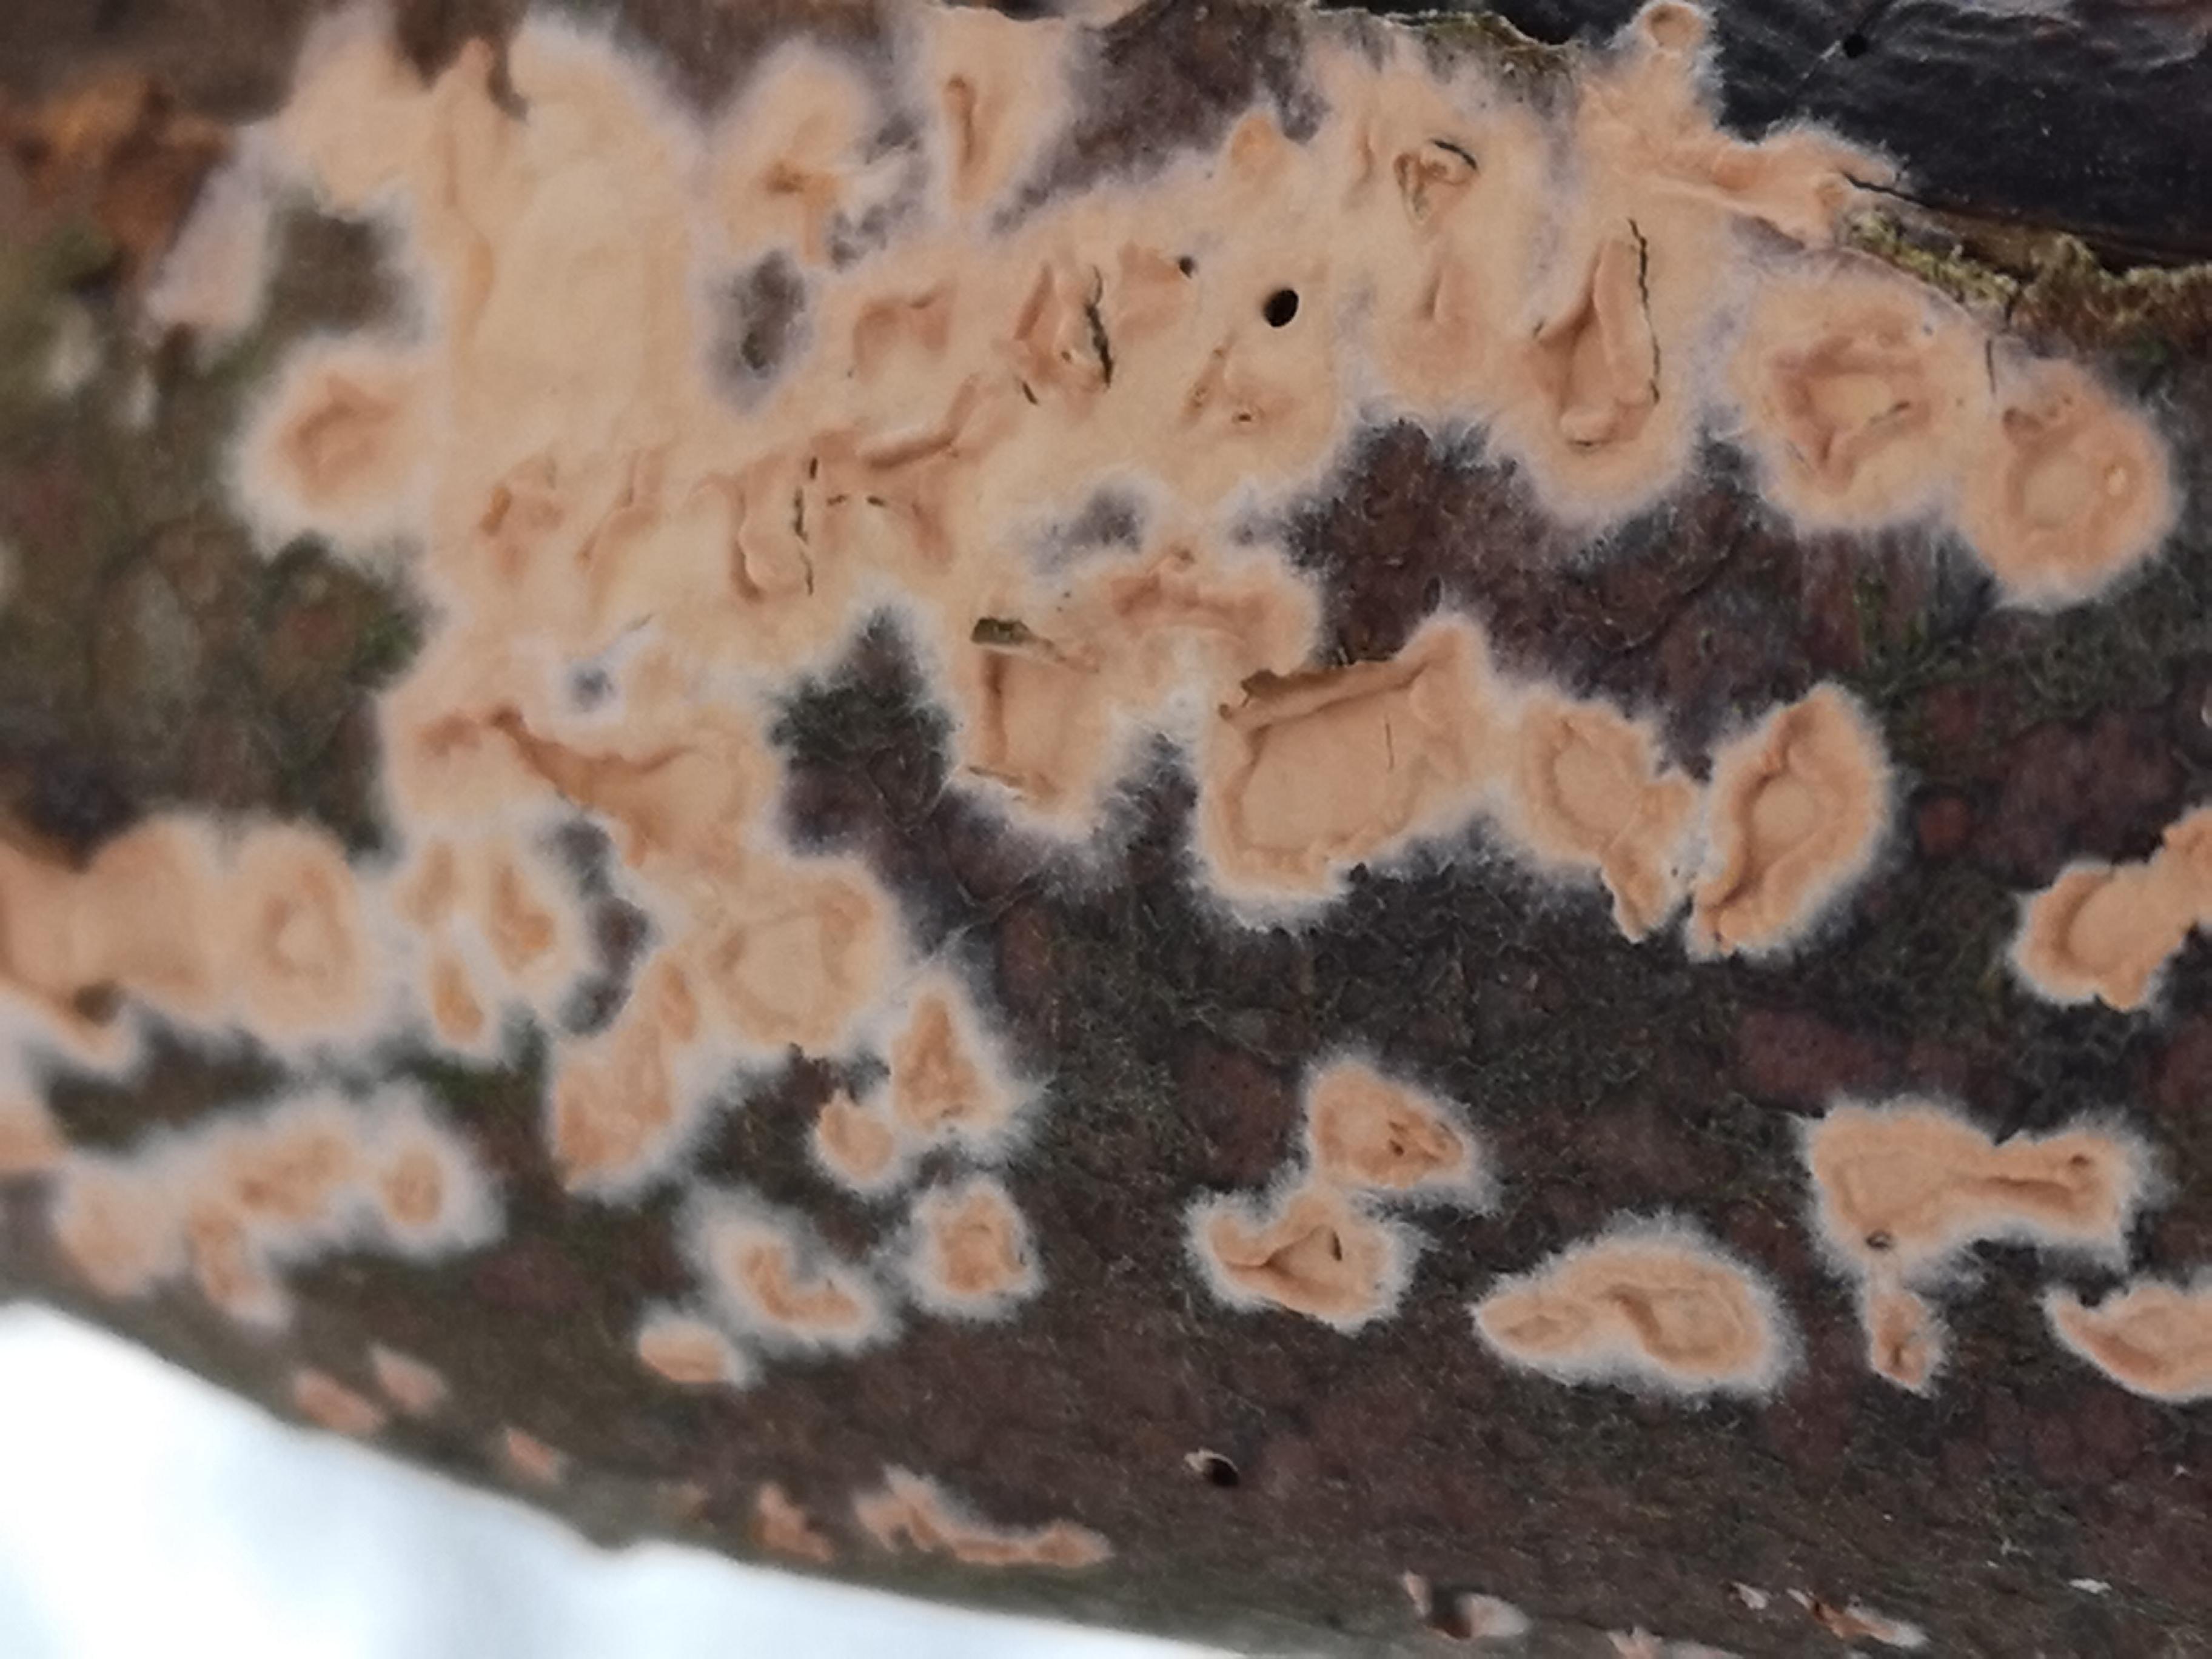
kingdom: Fungi
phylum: Basidiomycota
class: Agaricomycetes
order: Agaricales
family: Physalacriaceae
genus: Cylindrobasidium
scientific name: Cylindrobasidium evolvens
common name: sprækkehinde
